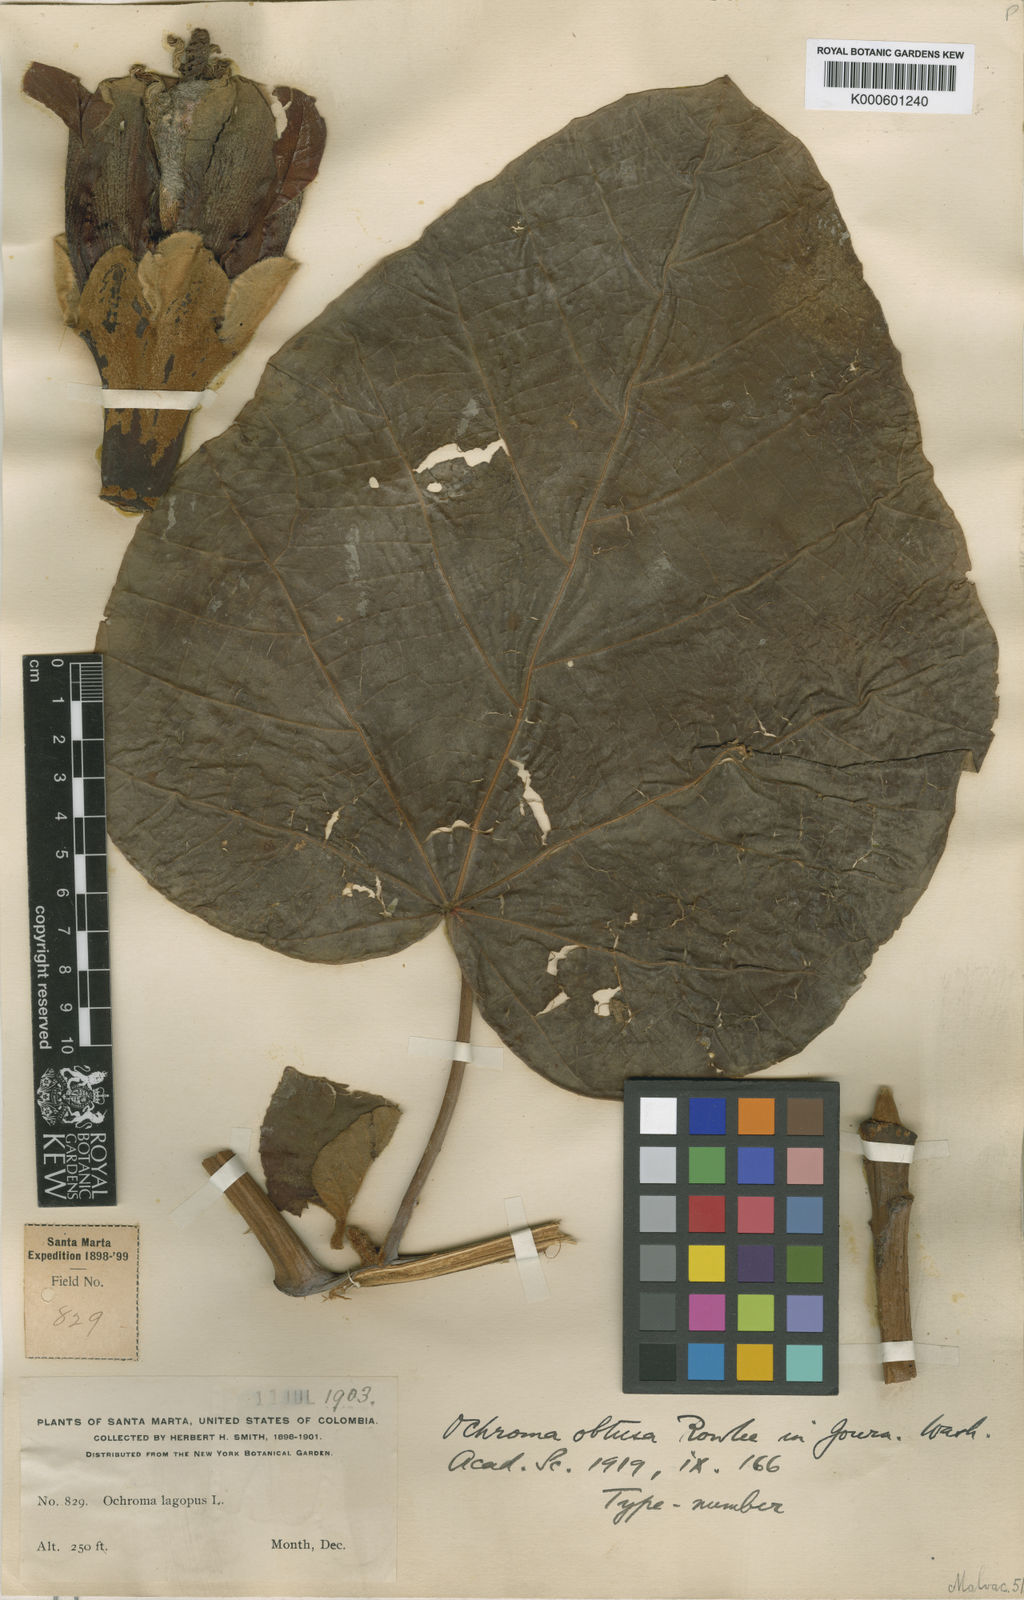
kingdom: Plantae
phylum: Tracheophyta
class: Magnoliopsida
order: Malvales
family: Malvaceae
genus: Ochroma
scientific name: Ochroma pyramidale
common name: Balsa
